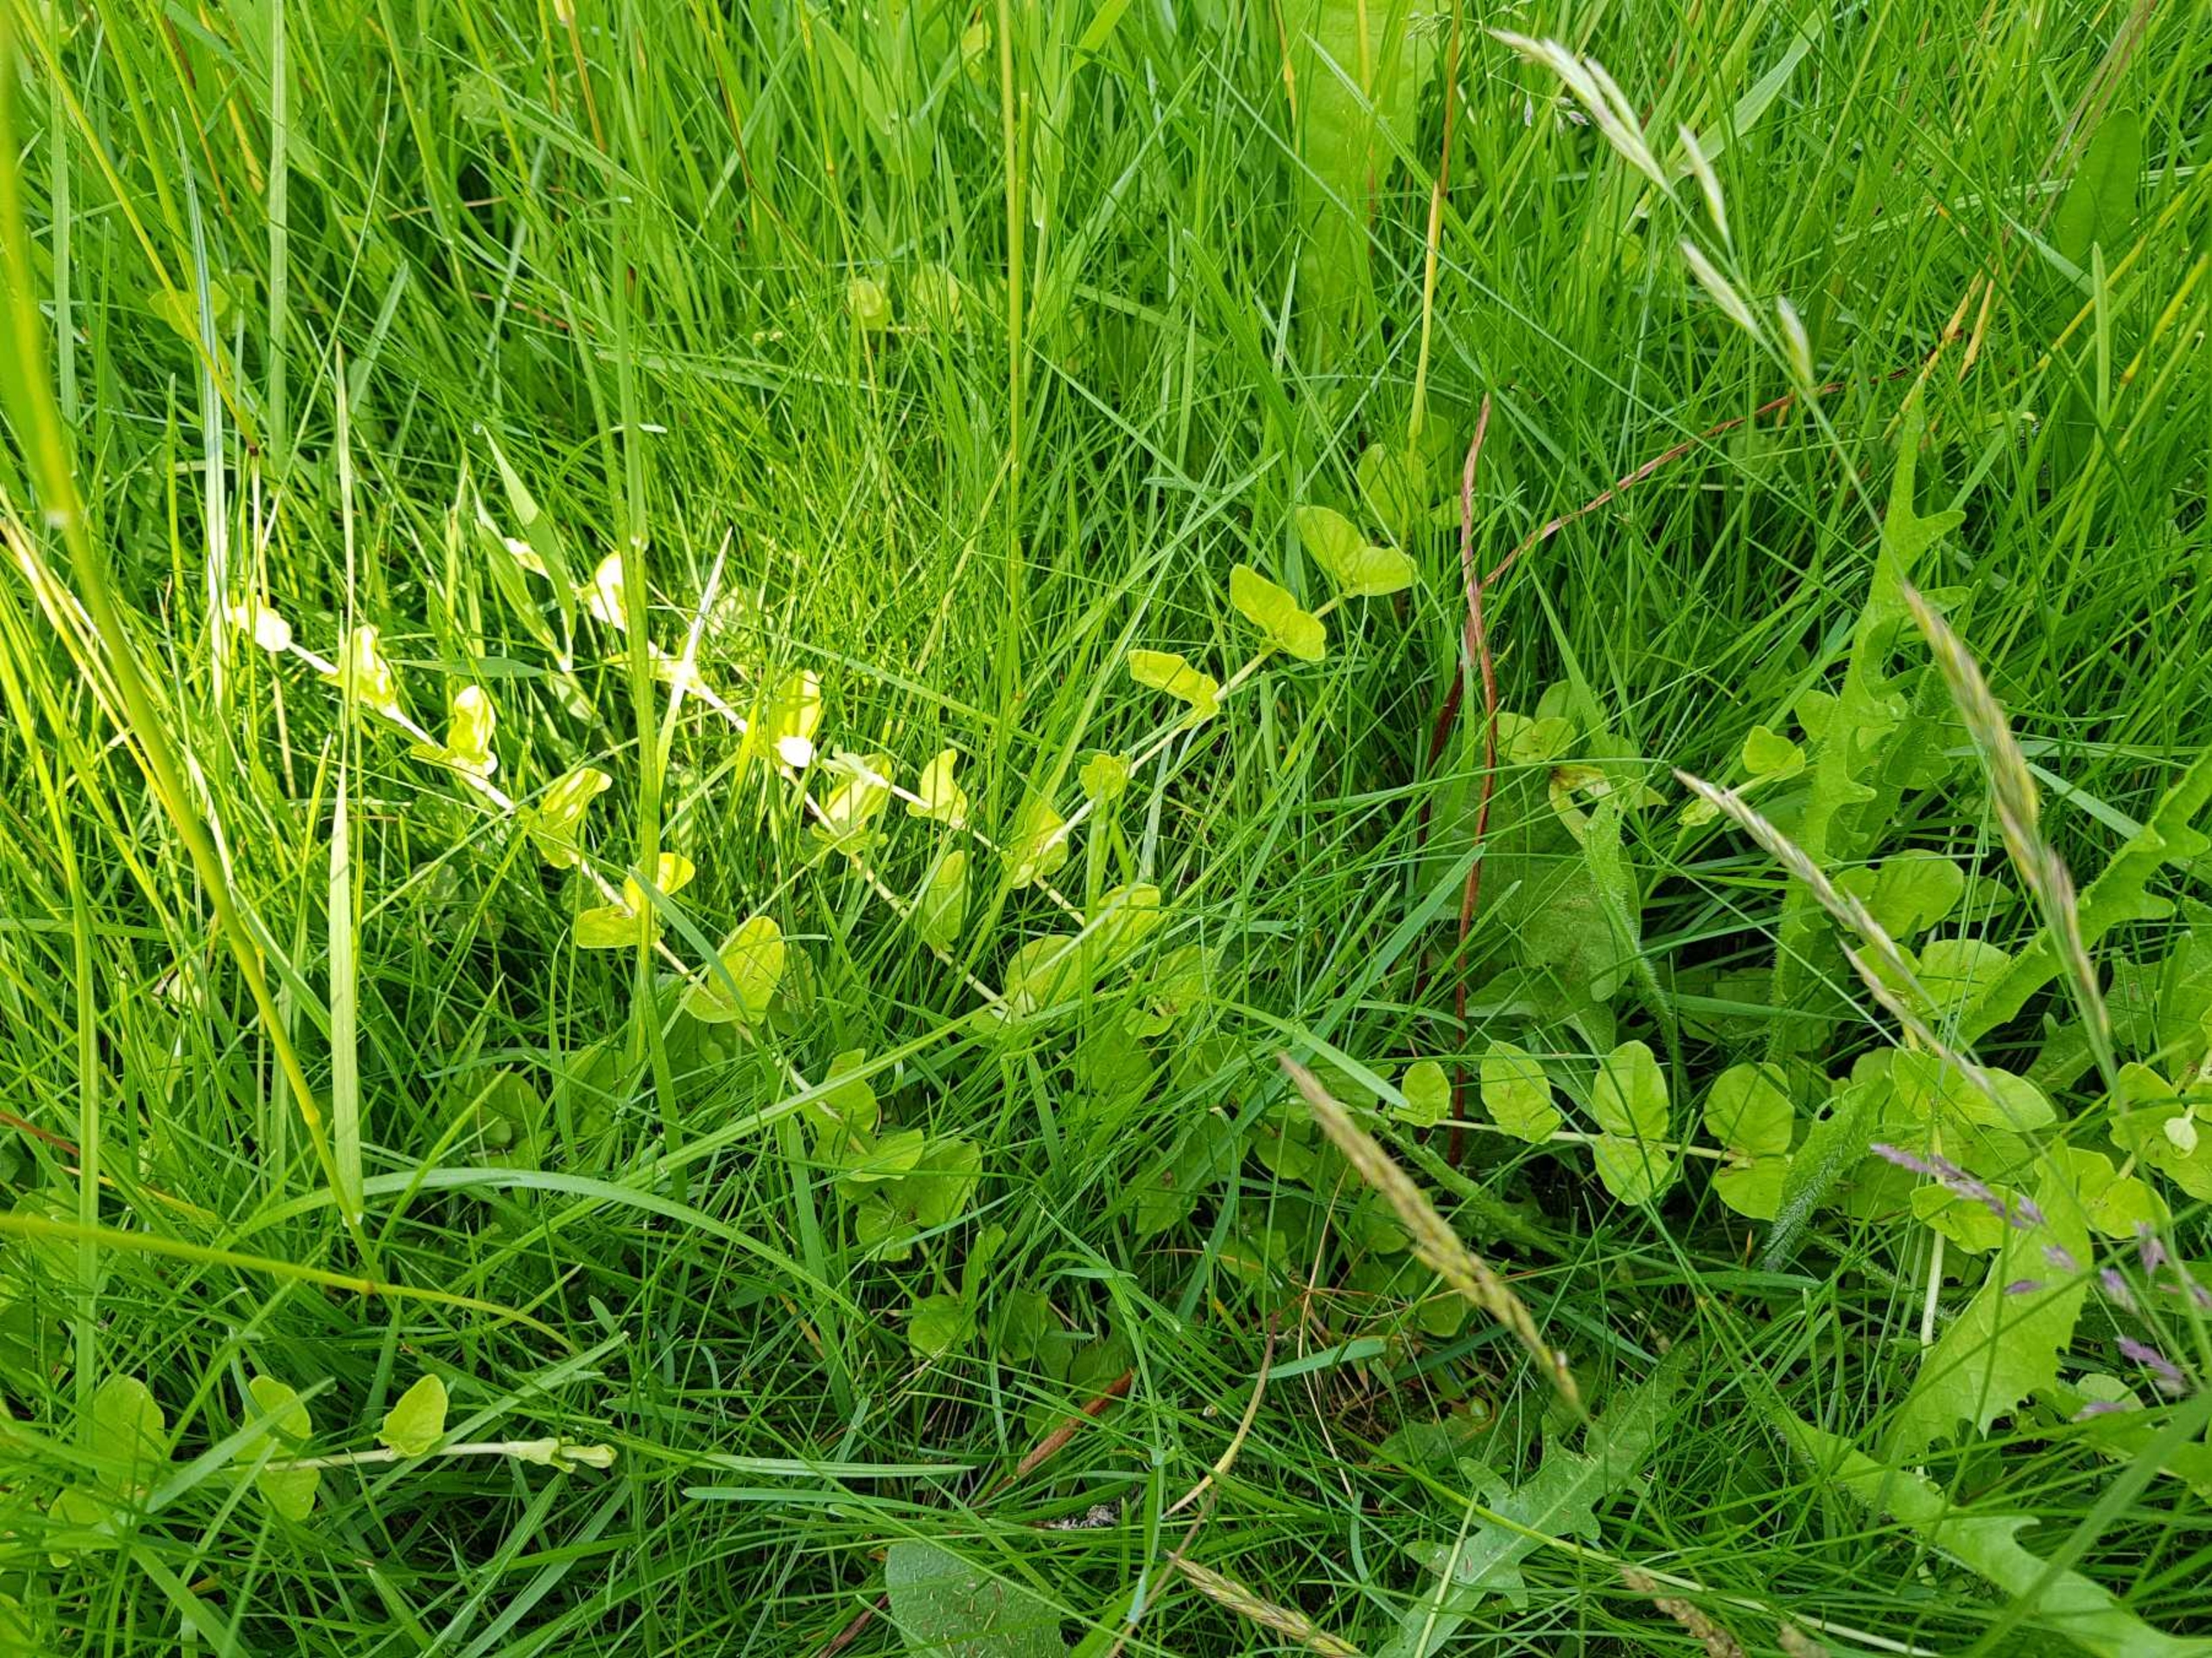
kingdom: Plantae
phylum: Tracheophyta
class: Magnoliopsida
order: Ericales
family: Primulaceae
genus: Lysimachia
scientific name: Lysimachia nummularia
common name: Pengebladet fredløs
